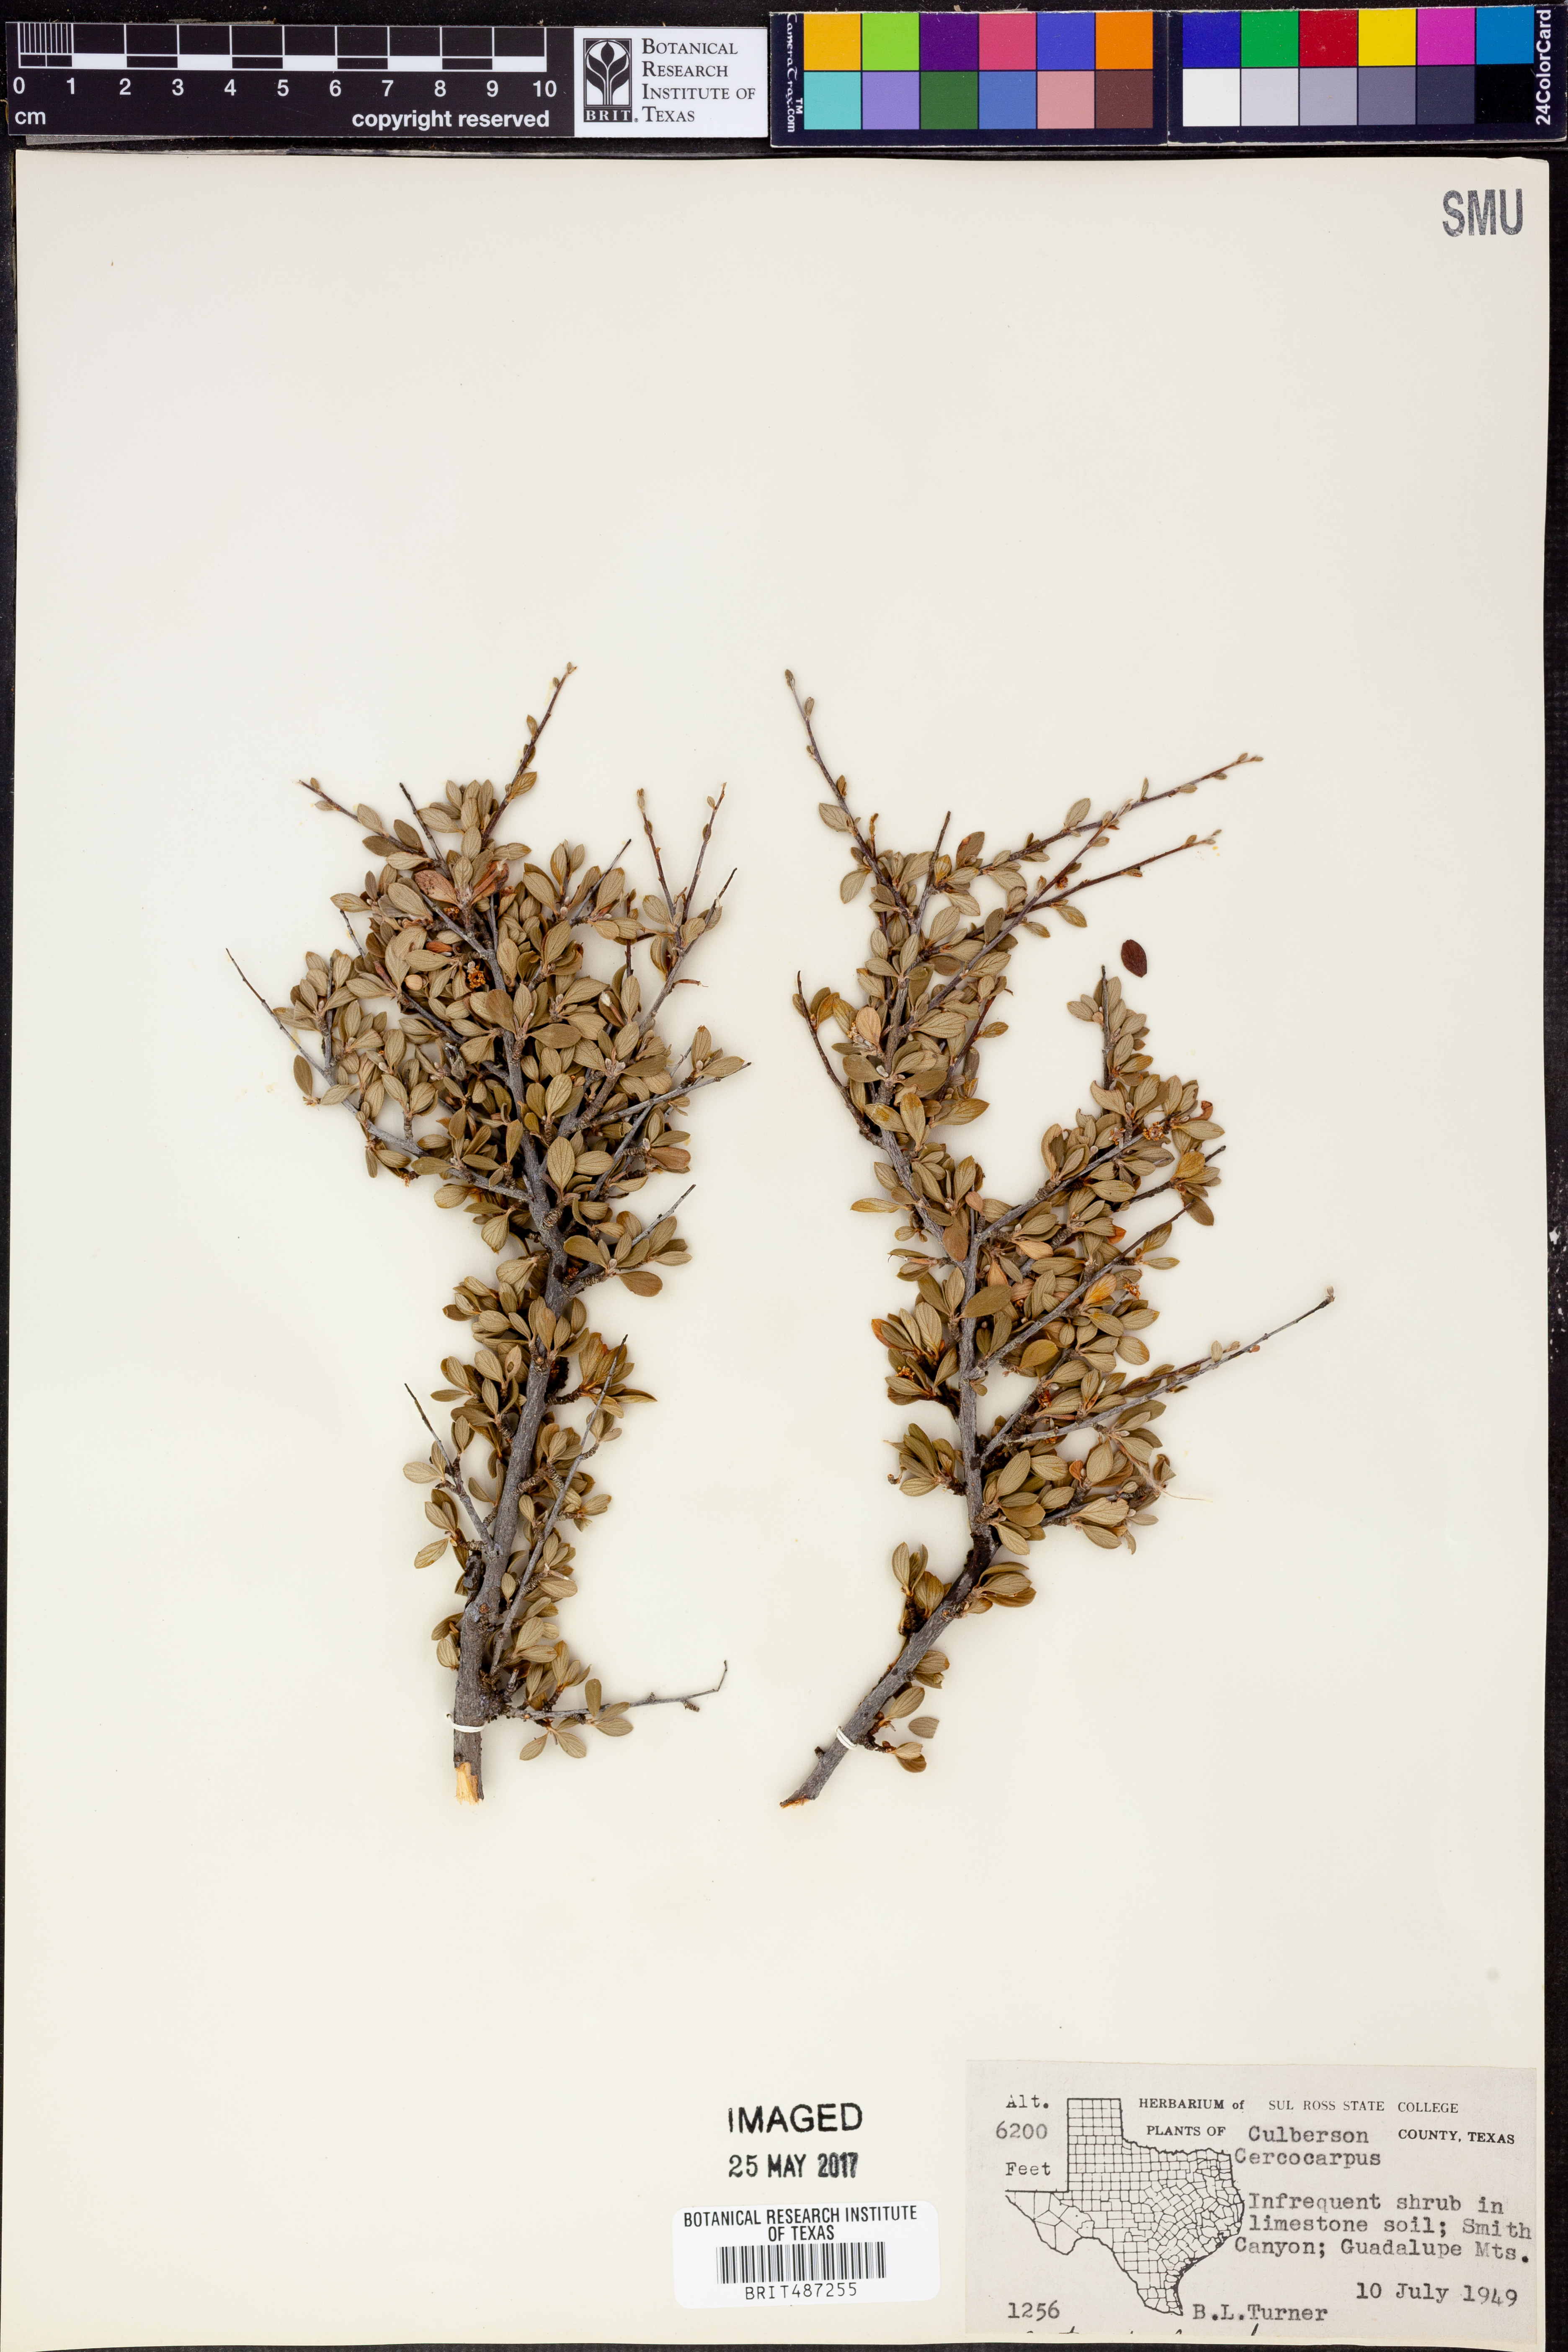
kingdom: Plantae
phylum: Tracheophyta
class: Magnoliopsida
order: Rosales
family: Rosaceae
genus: Cercocarpus
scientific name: Cercocarpus
